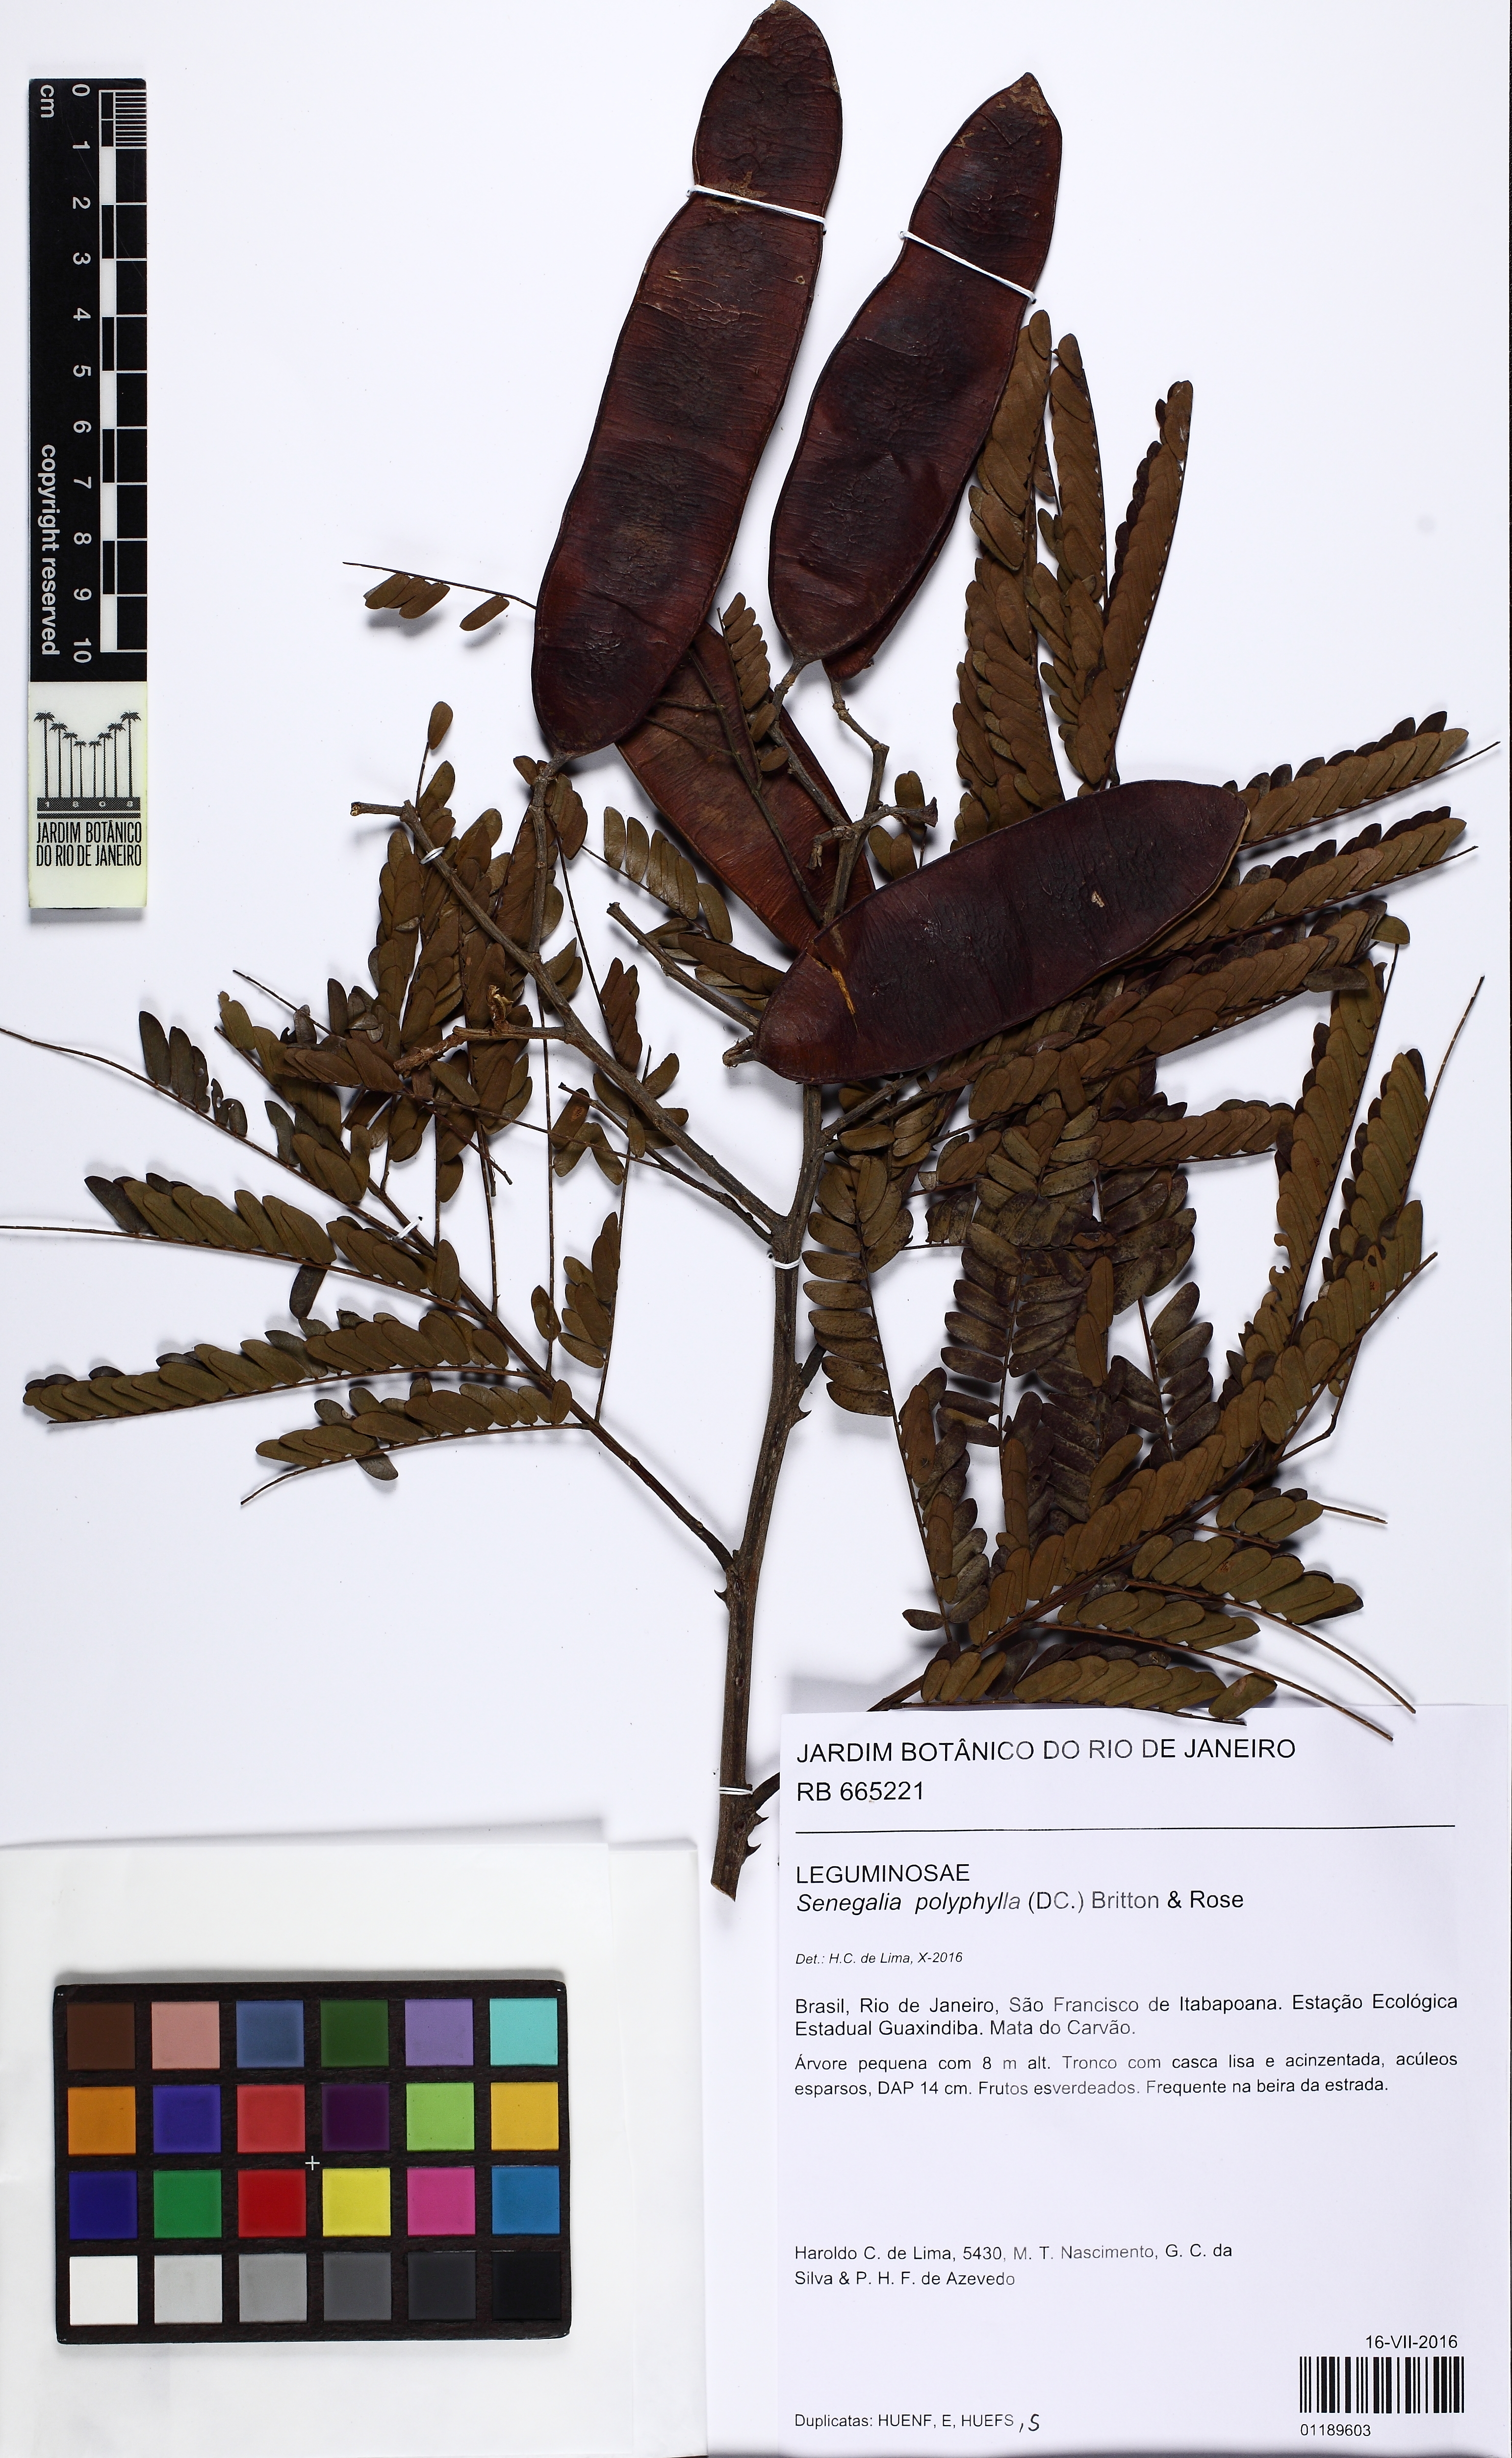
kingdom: Plantae
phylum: Tracheophyta
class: Magnoliopsida
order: Fabales
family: Fabaceae
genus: Senegalia
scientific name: Senegalia polyphylla
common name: White-tamarind
